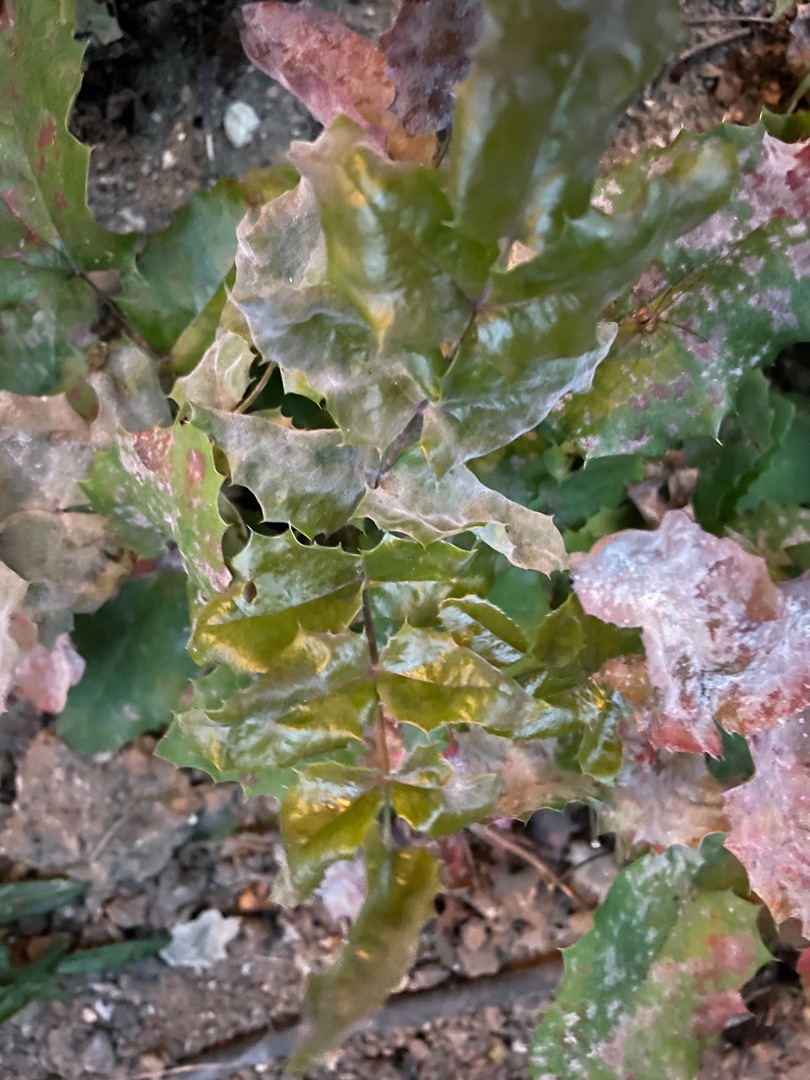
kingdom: Plantae
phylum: Tracheophyta
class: Magnoliopsida
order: Ranunculales
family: Berberidaceae
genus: Mahonia
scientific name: Mahonia aquifolium
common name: Almindelig mahonie
